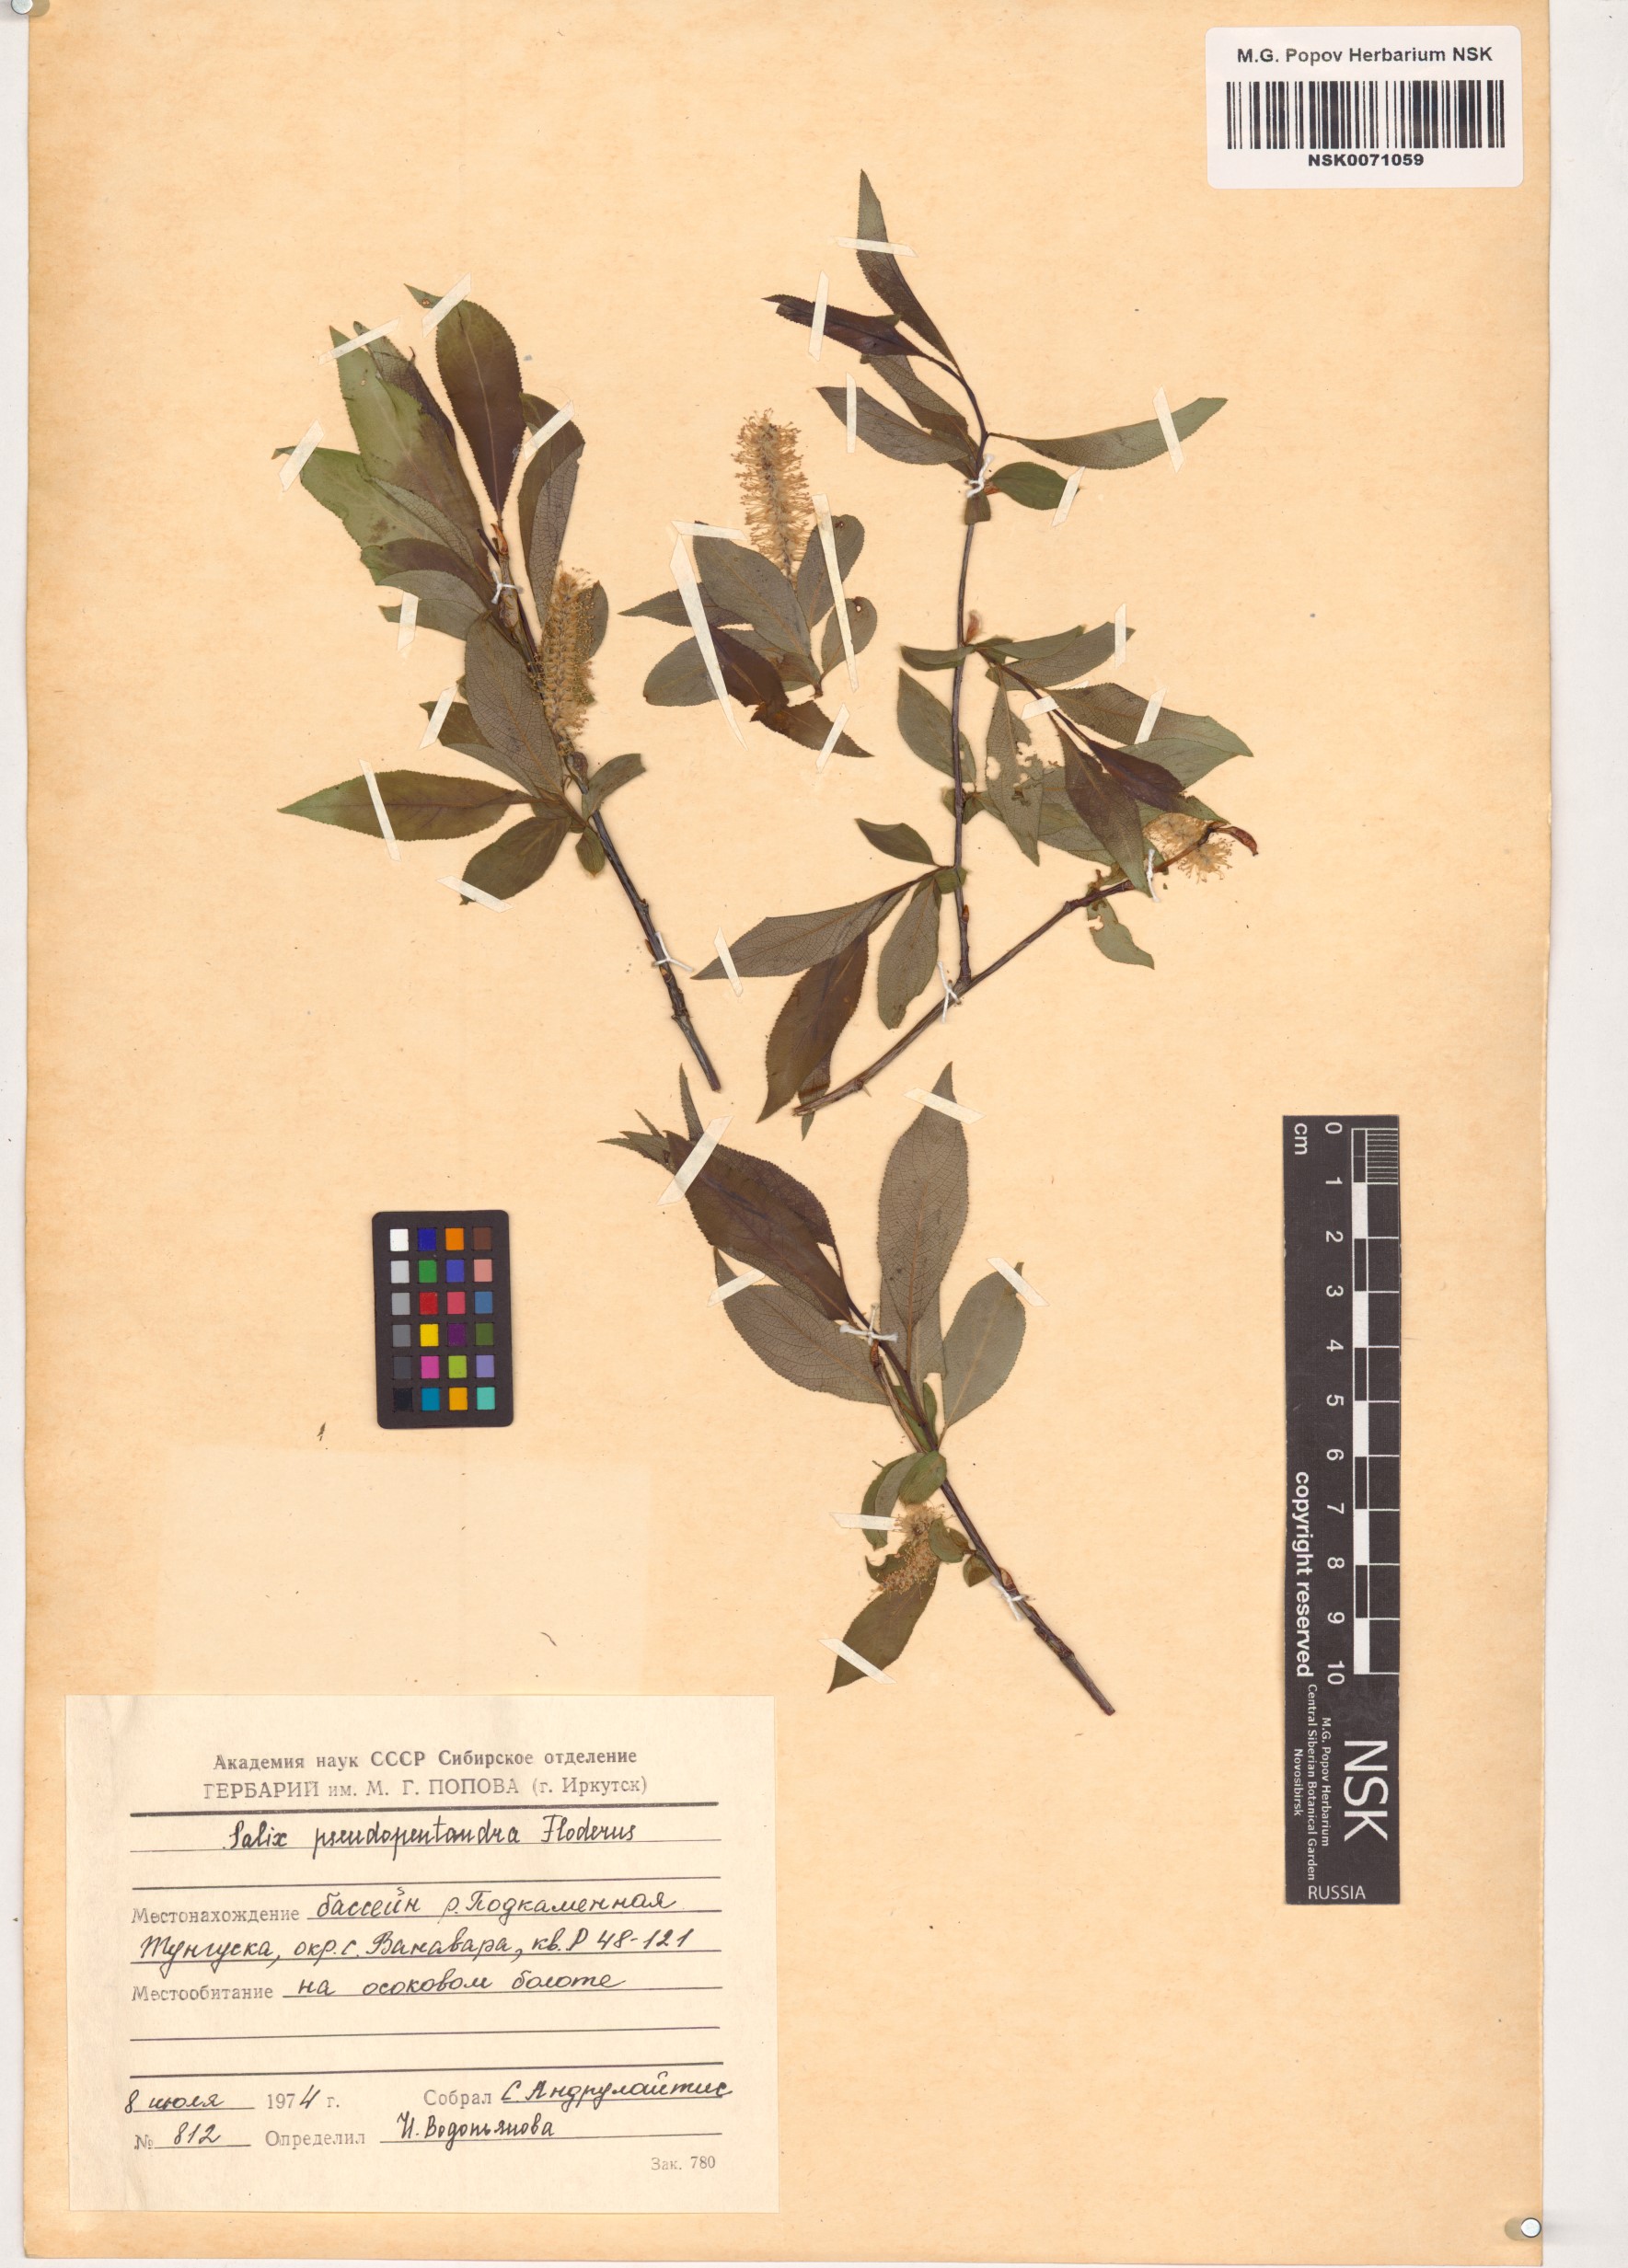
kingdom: Plantae
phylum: Tracheophyta
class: Magnoliopsida
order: Malpighiales
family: Salicaceae
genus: Salix
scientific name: Salix pseudopentandra
